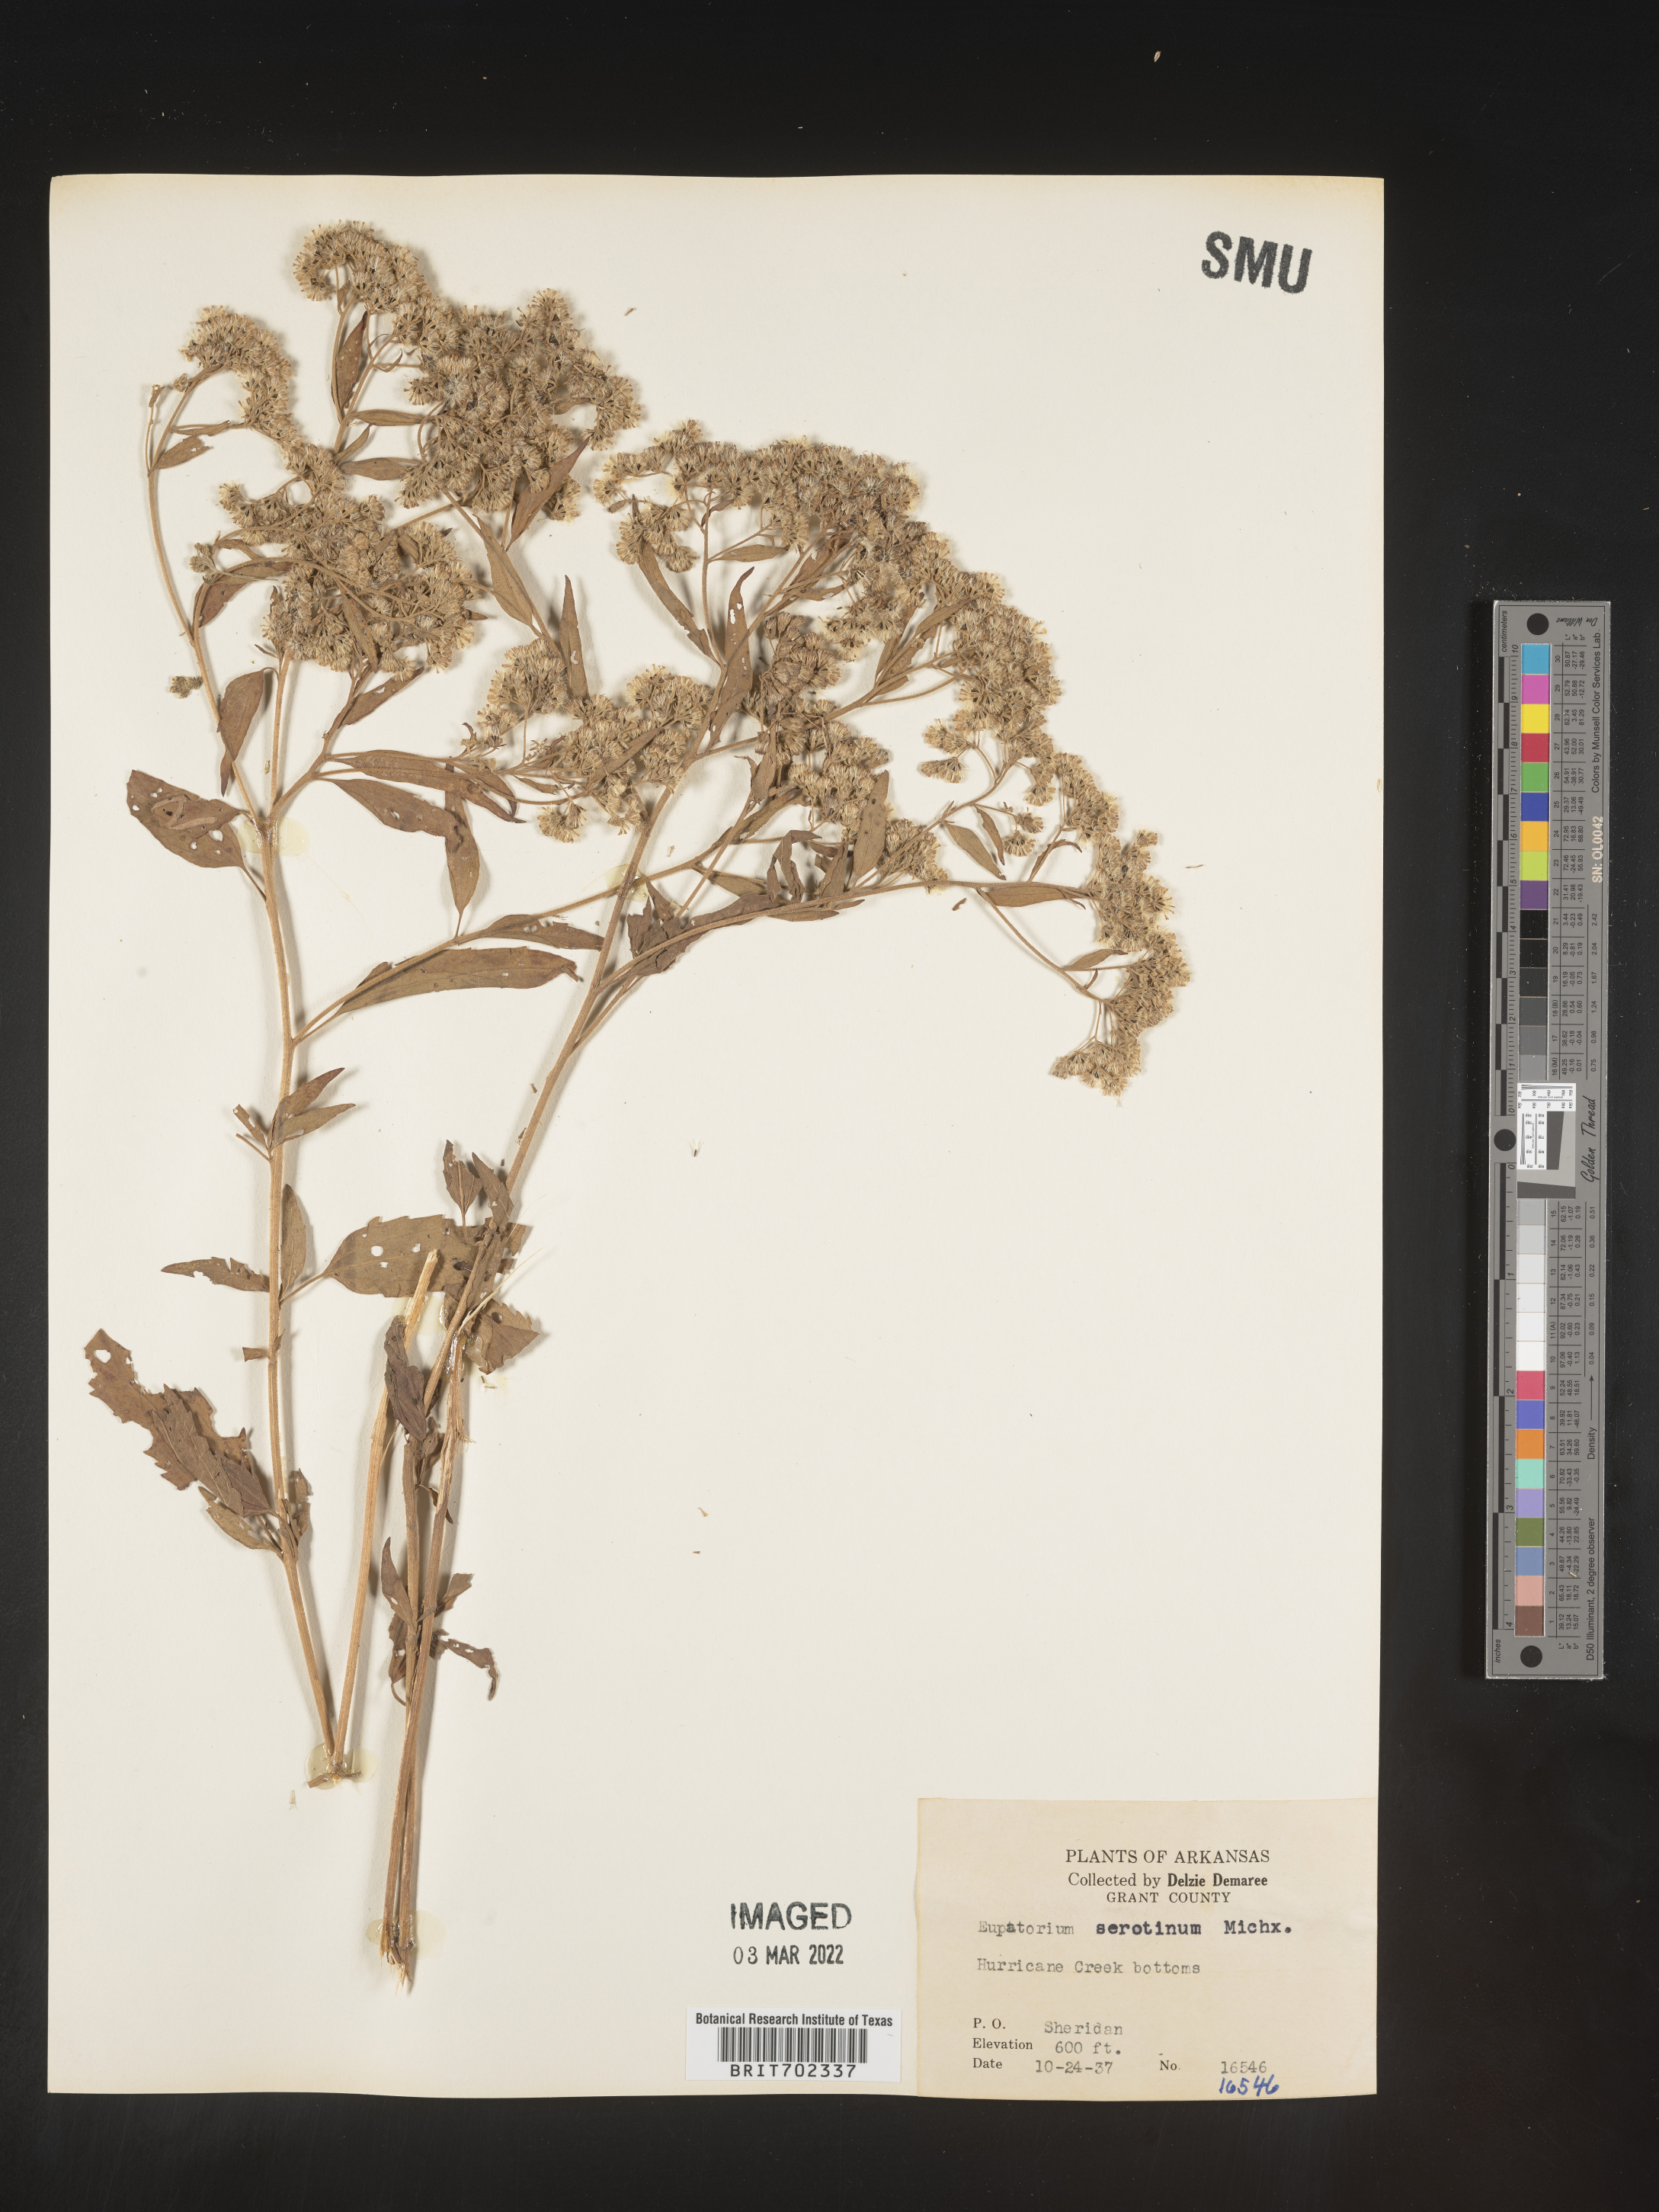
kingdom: Plantae
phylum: Tracheophyta
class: Magnoliopsida
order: Asterales
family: Asteraceae
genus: Eupatorium
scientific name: Eupatorium serotinum
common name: Late boneset
